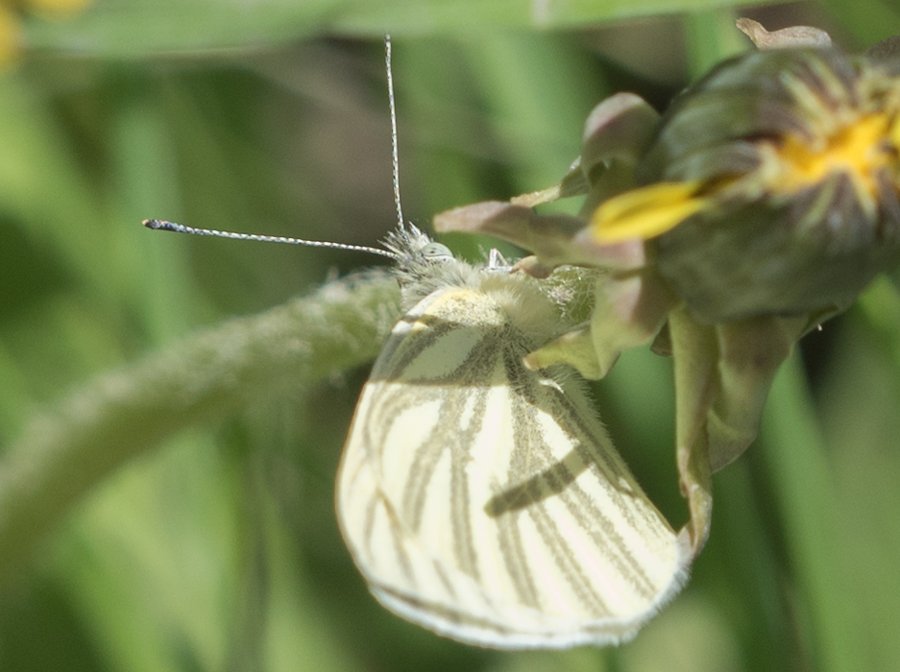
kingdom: Animalia
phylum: Arthropoda
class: Insecta
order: Lepidoptera
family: Pieridae
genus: Pieris
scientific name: Pieris marginalis
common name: Margined White
